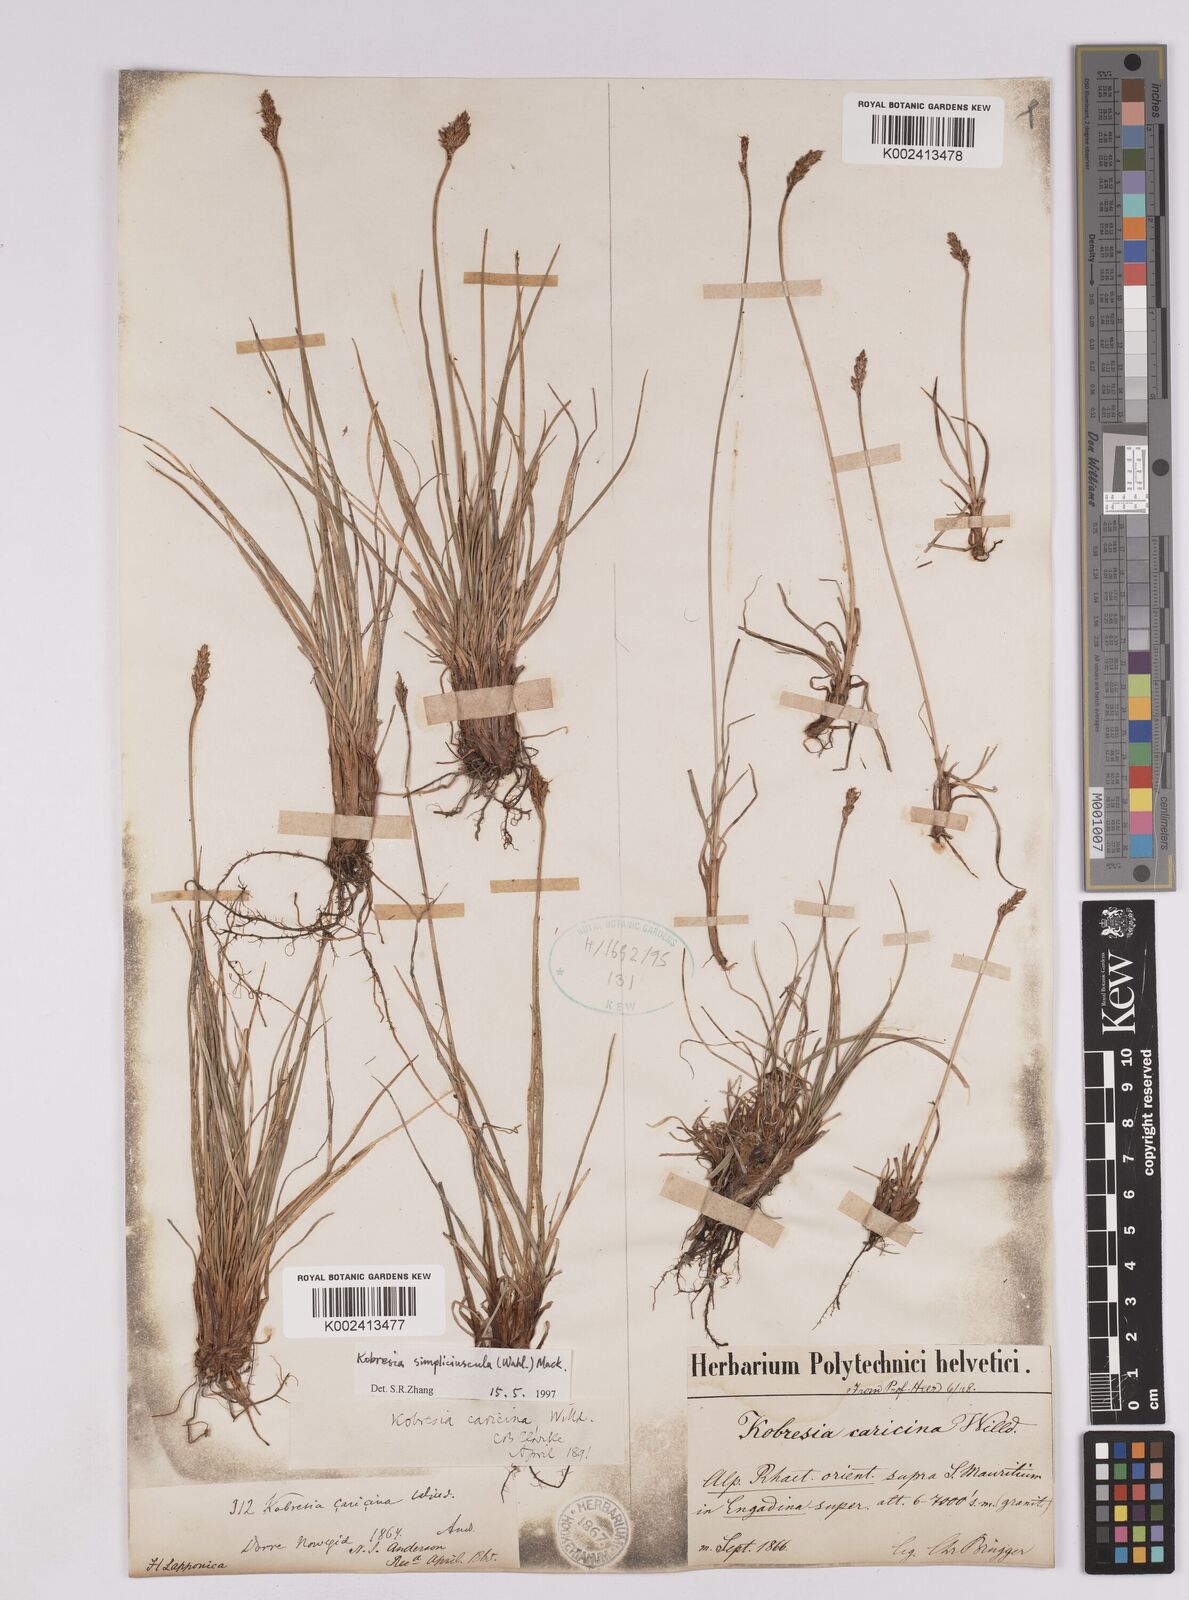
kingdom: Plantae
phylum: Tracheophyta
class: Liliopsida
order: Poales
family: Cyperaceae
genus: Carex
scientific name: Carex simpliciuscula
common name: Simple bog sedge
